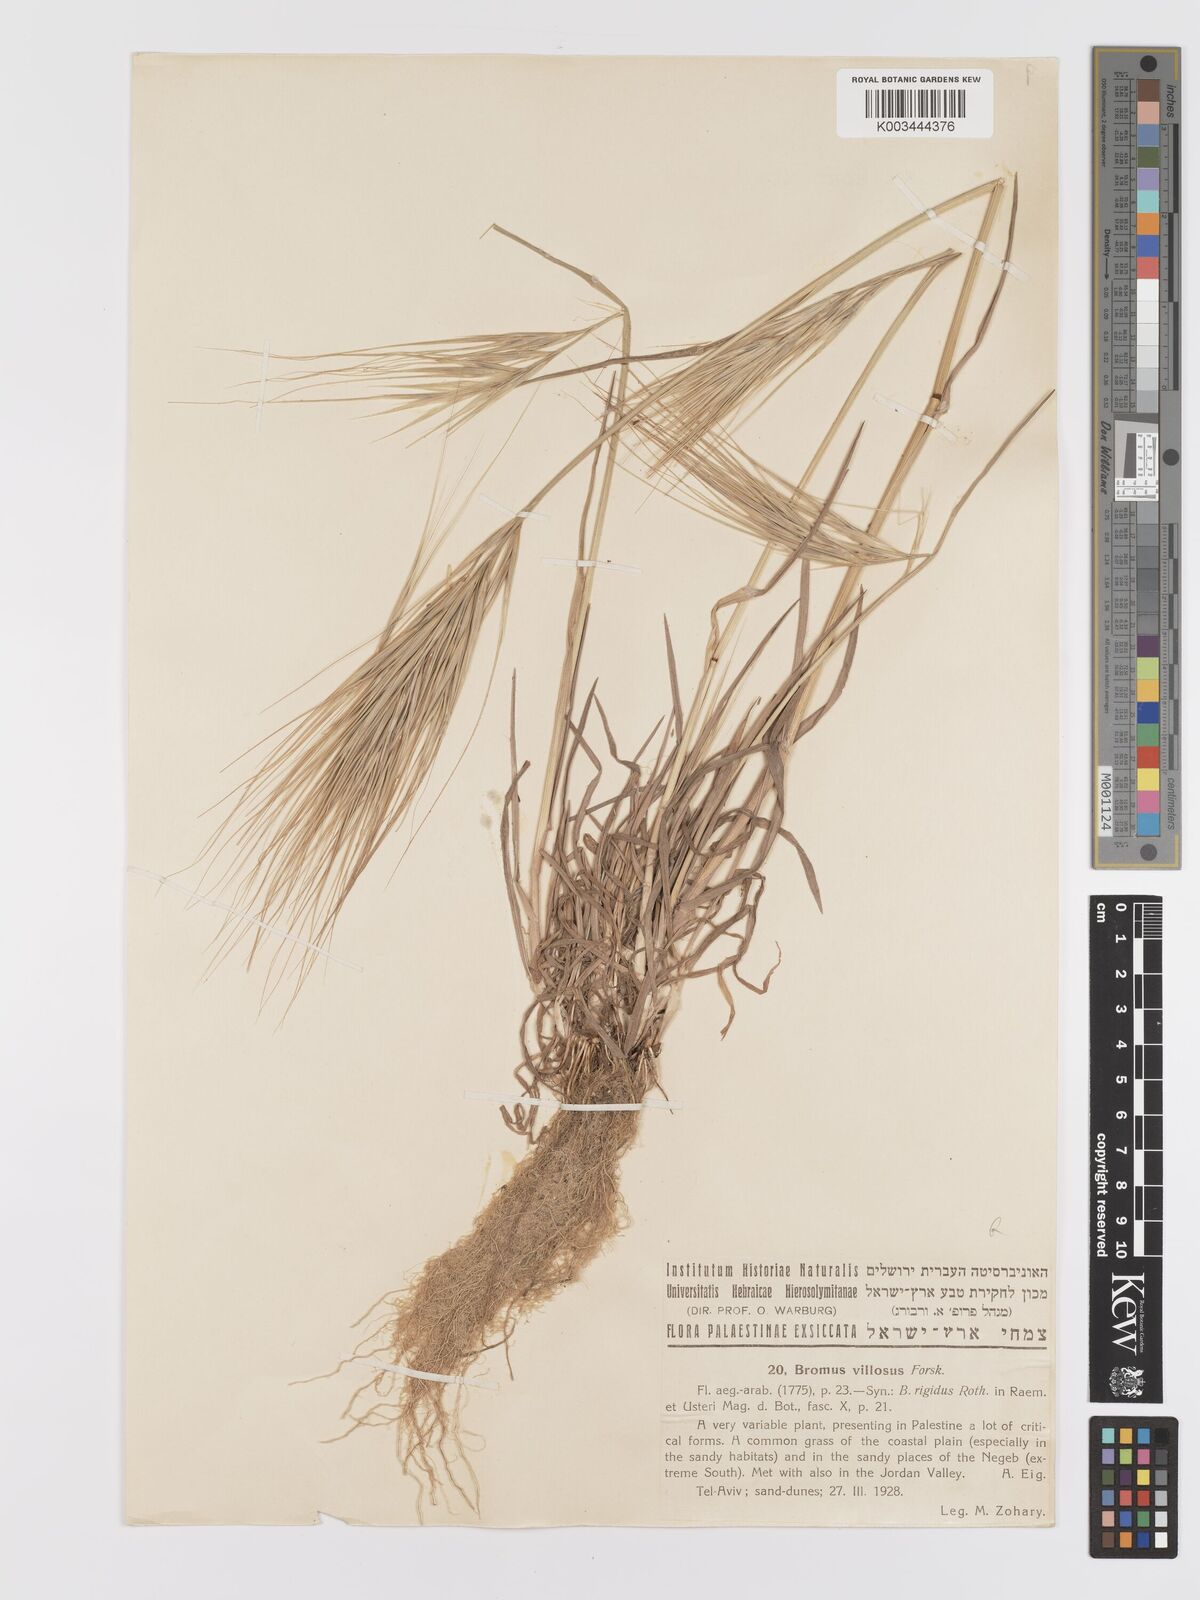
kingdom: Plantae
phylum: Tracheophyta
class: Liliopsida
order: Poales
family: Poaceae
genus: Bromus
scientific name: Bromus
